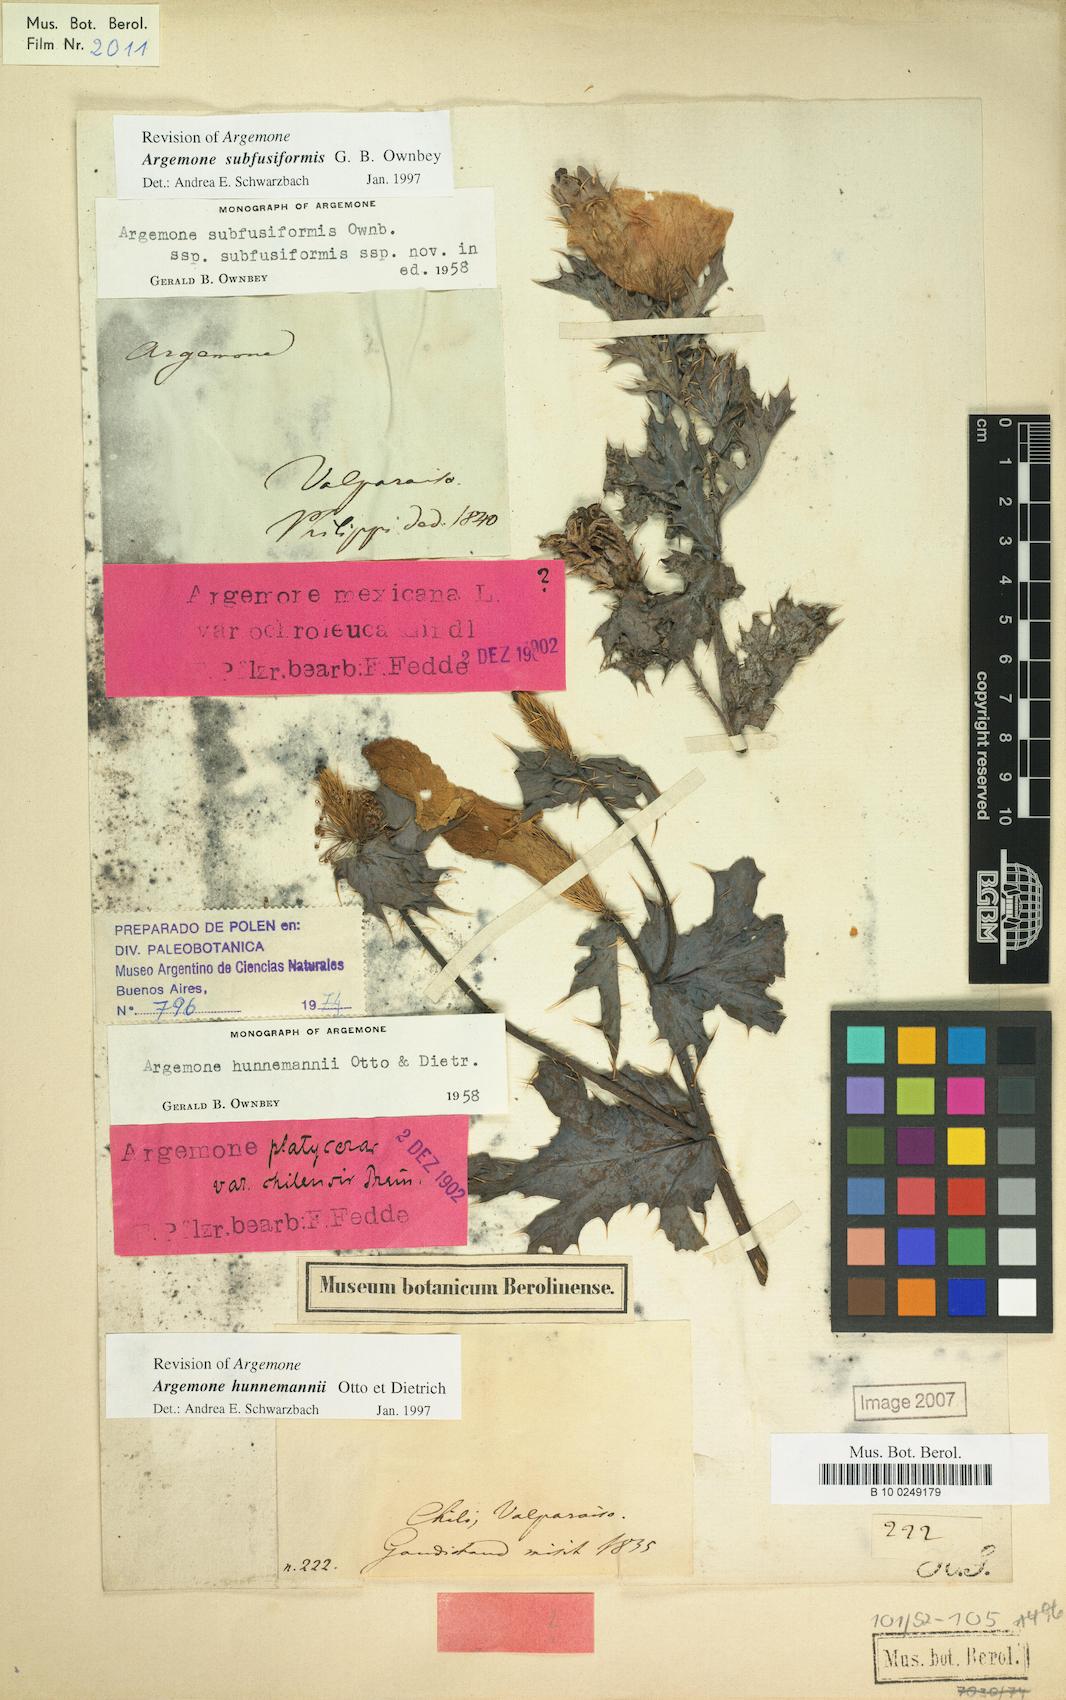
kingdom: Plantae
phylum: Tracheophyta
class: Magnoliopsida
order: Ranunculales
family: Papaveraceae
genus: Argemone
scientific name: Argemone hunnemannii
